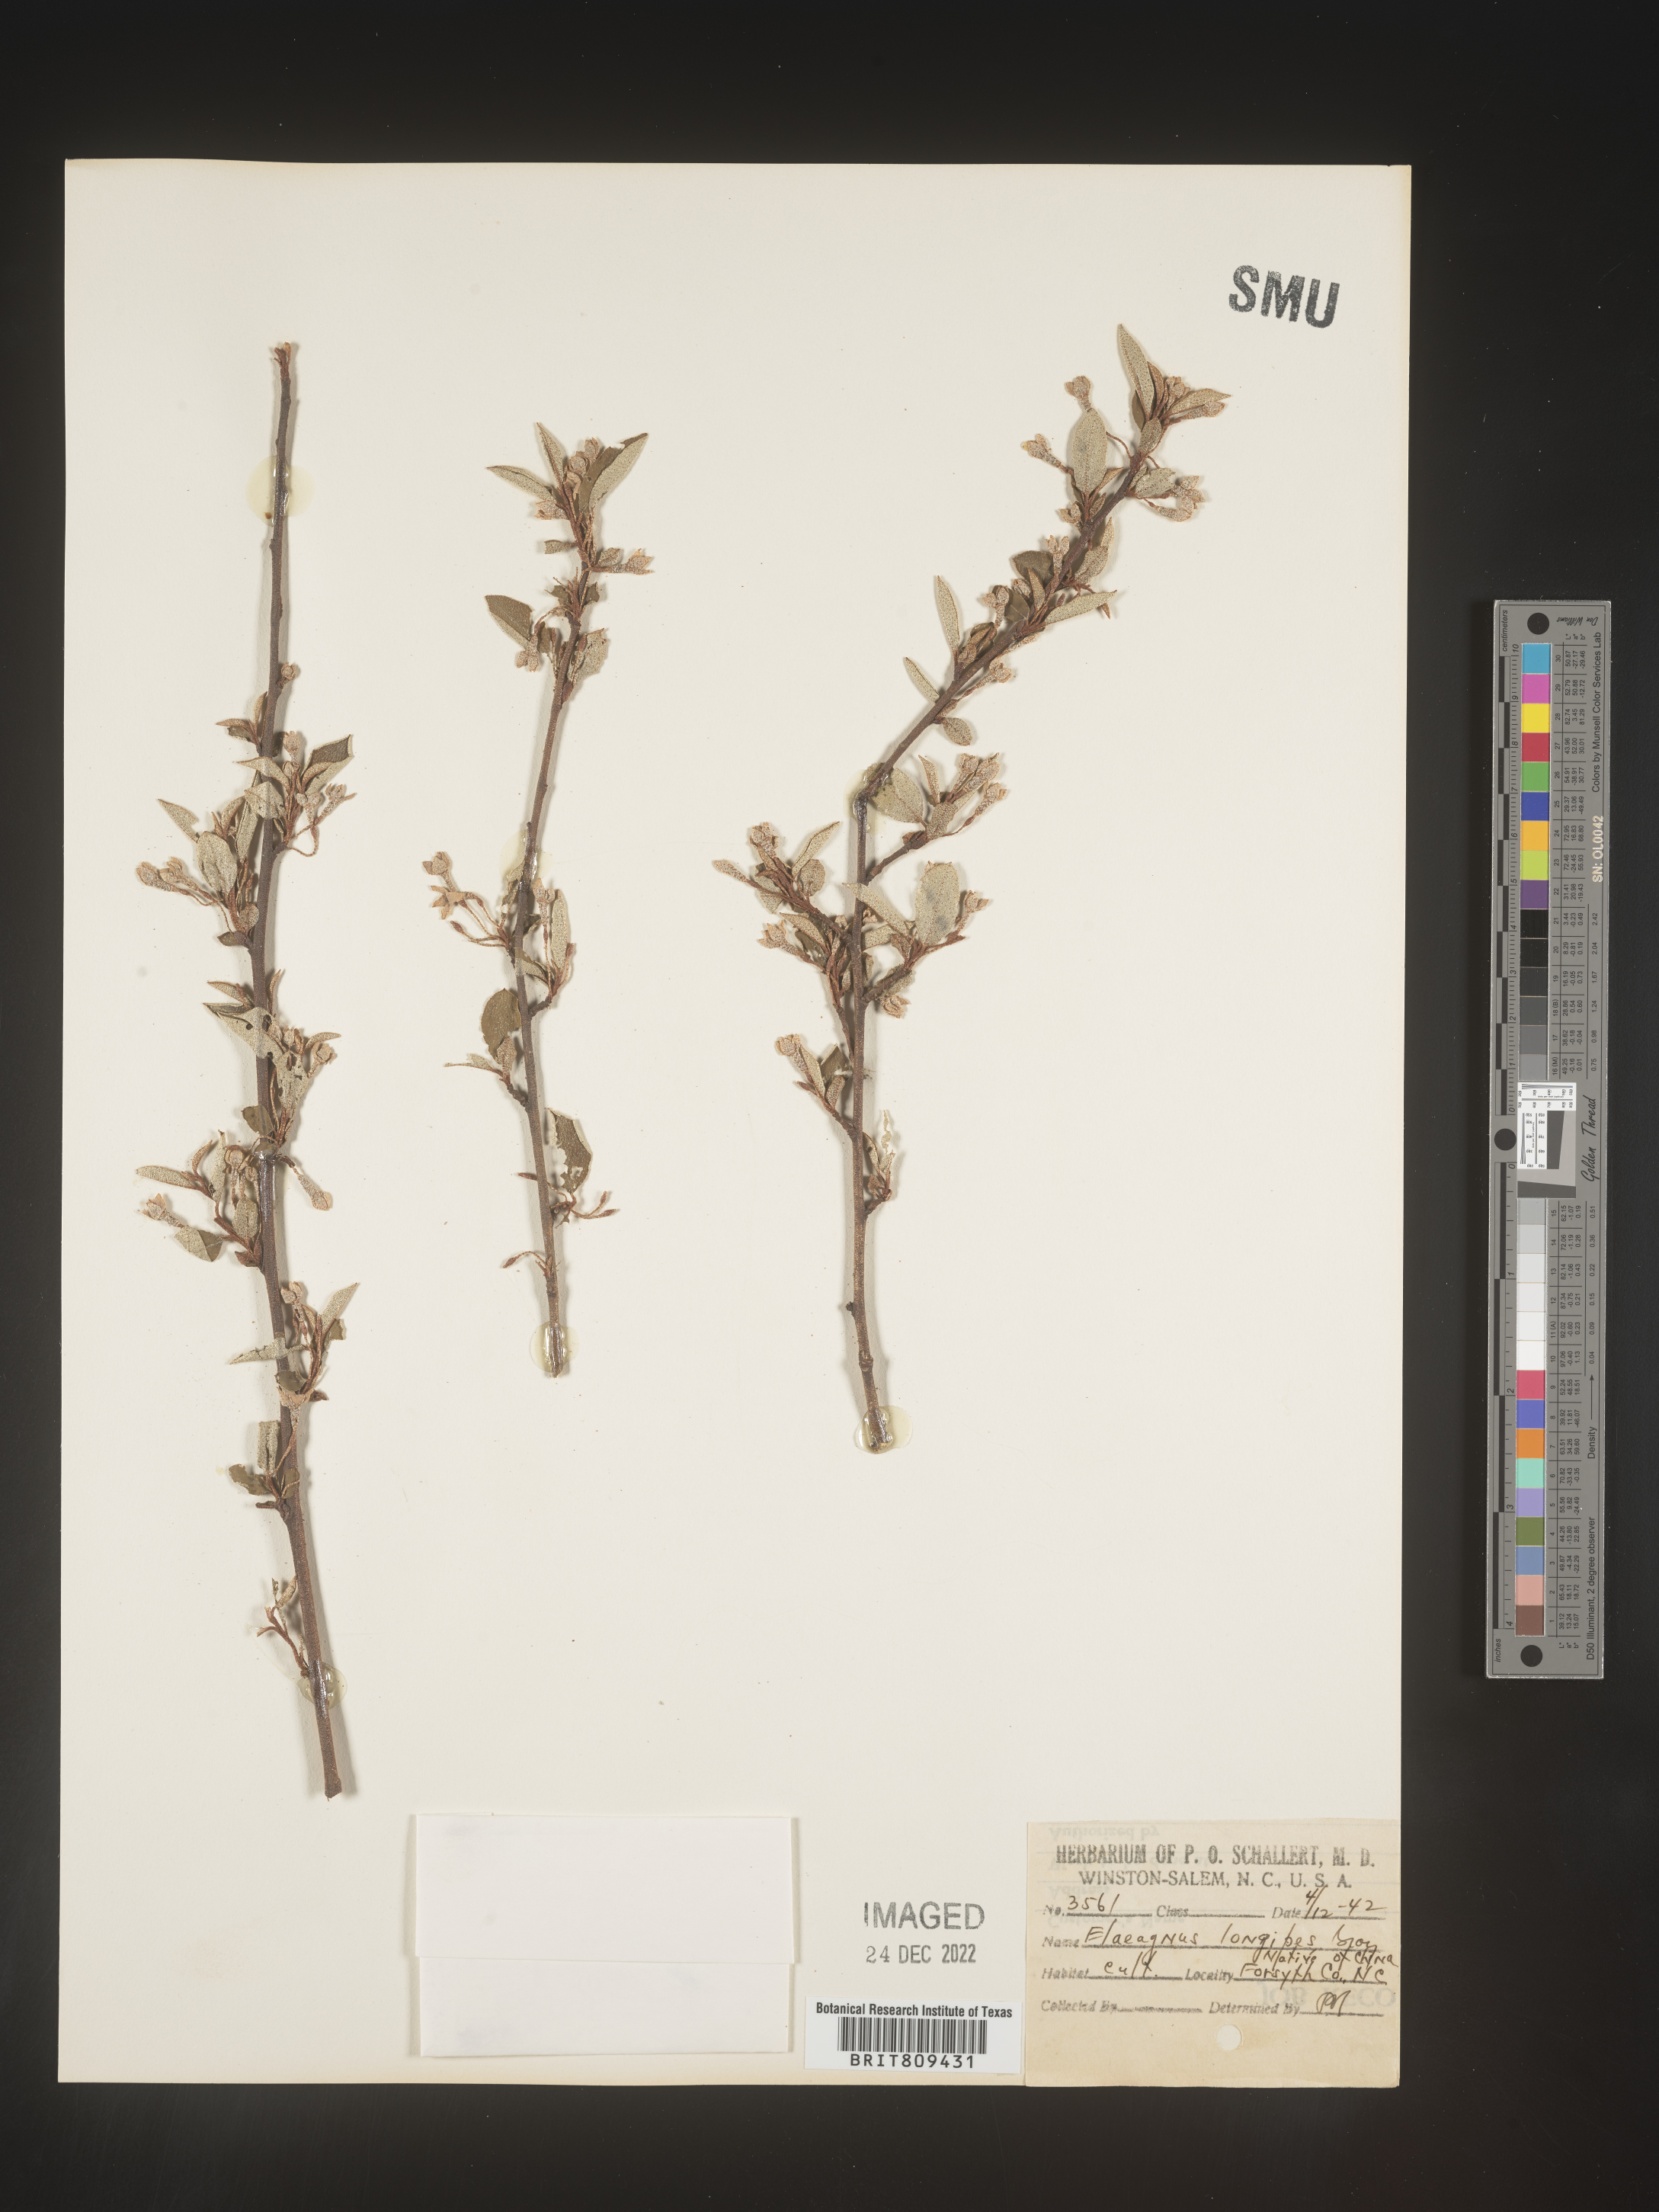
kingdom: Plantae
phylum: Tracheophyta
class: Magnoliopsida
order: Rosales
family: Elaeagnaceae
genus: Elaeagnus
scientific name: Elaeagnus
